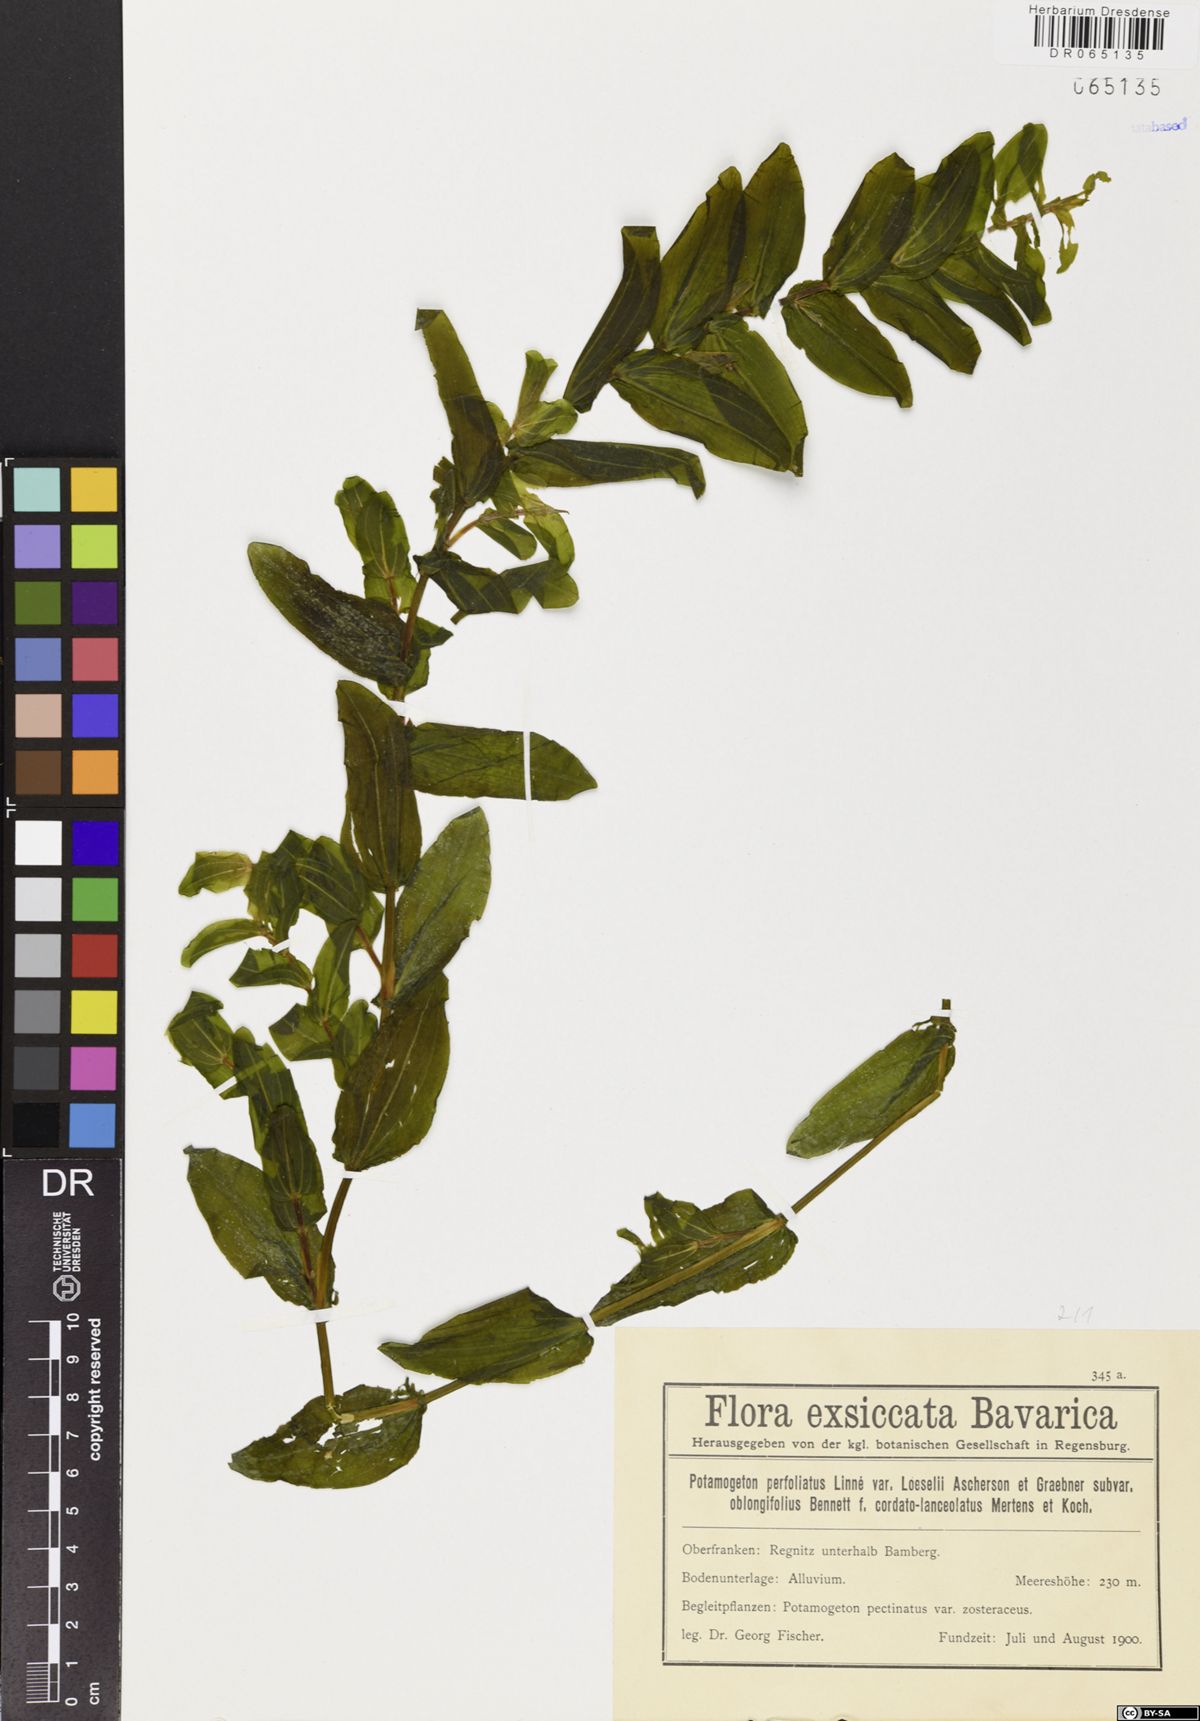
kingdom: Plantae
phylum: Tracheophyta
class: Liliopsida
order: Alismatales
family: Potamogetonaceae
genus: Potamogeton
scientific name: Potamogeton perfoliatus
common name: Perfoliate pondweed
